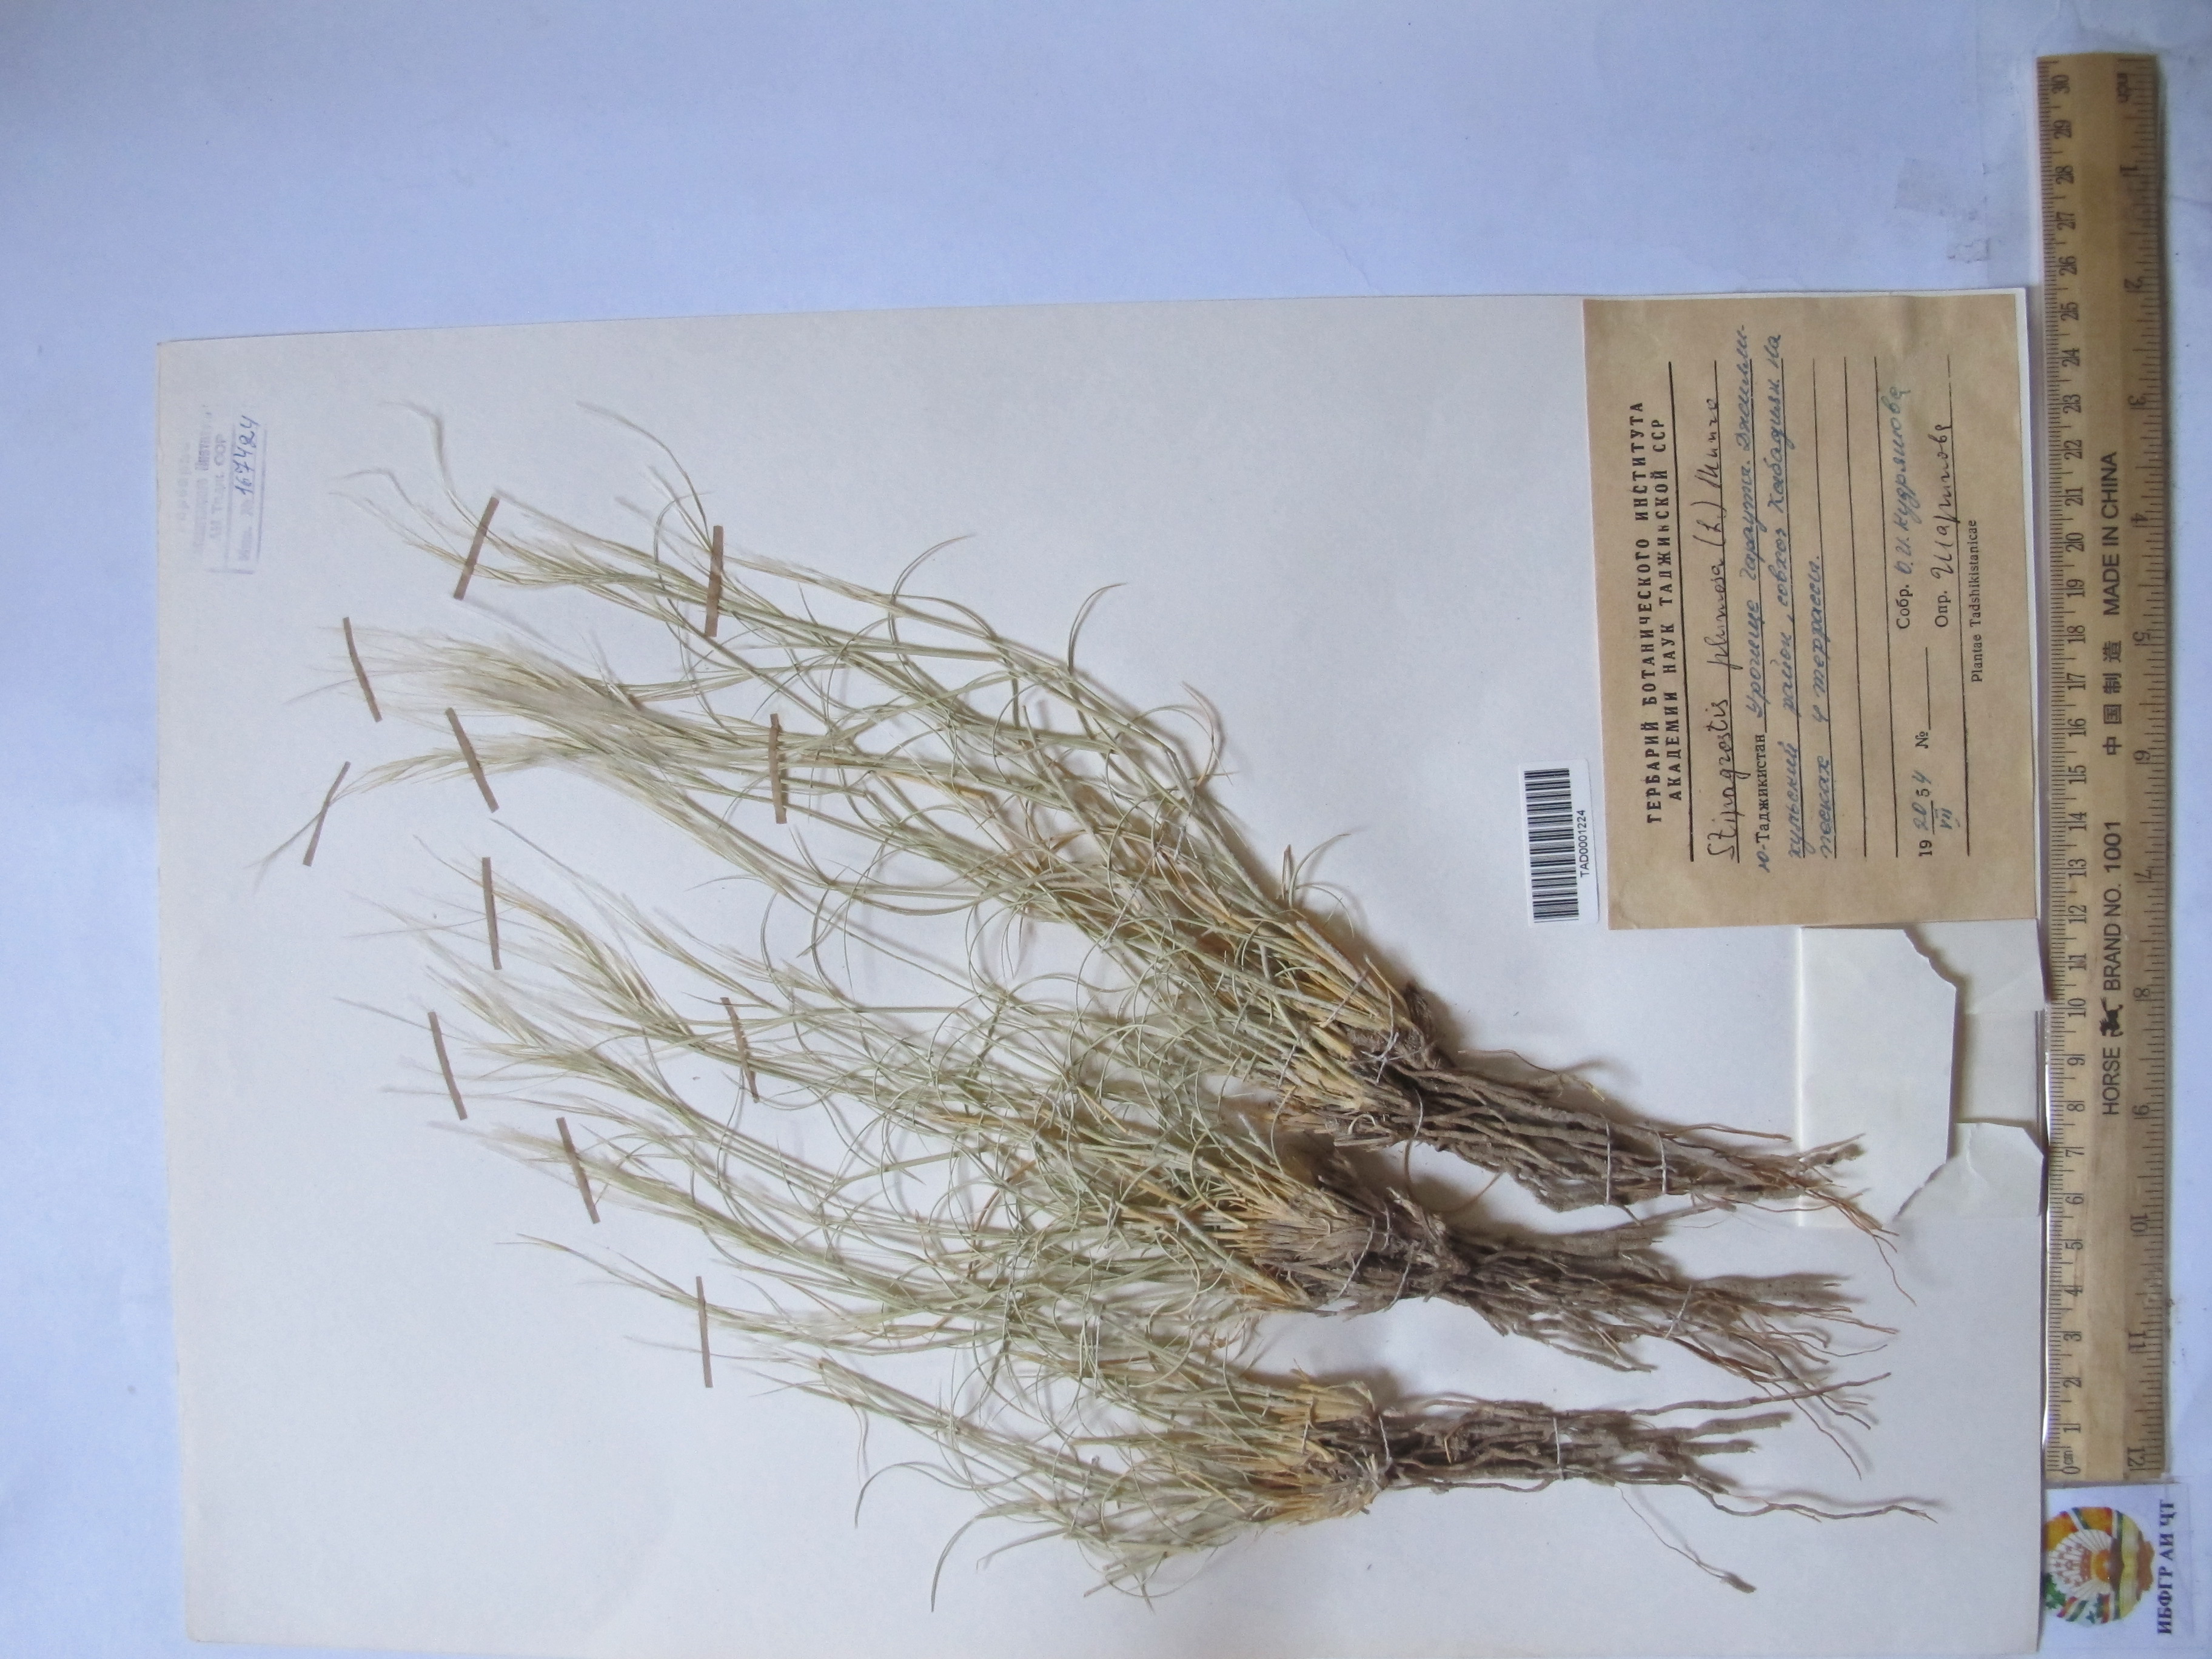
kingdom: Plantae
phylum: Tracheophyta
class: Liliopsida
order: Poales
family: Poaceae
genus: Stipagrostis
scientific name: Stipagrostis plumosa
